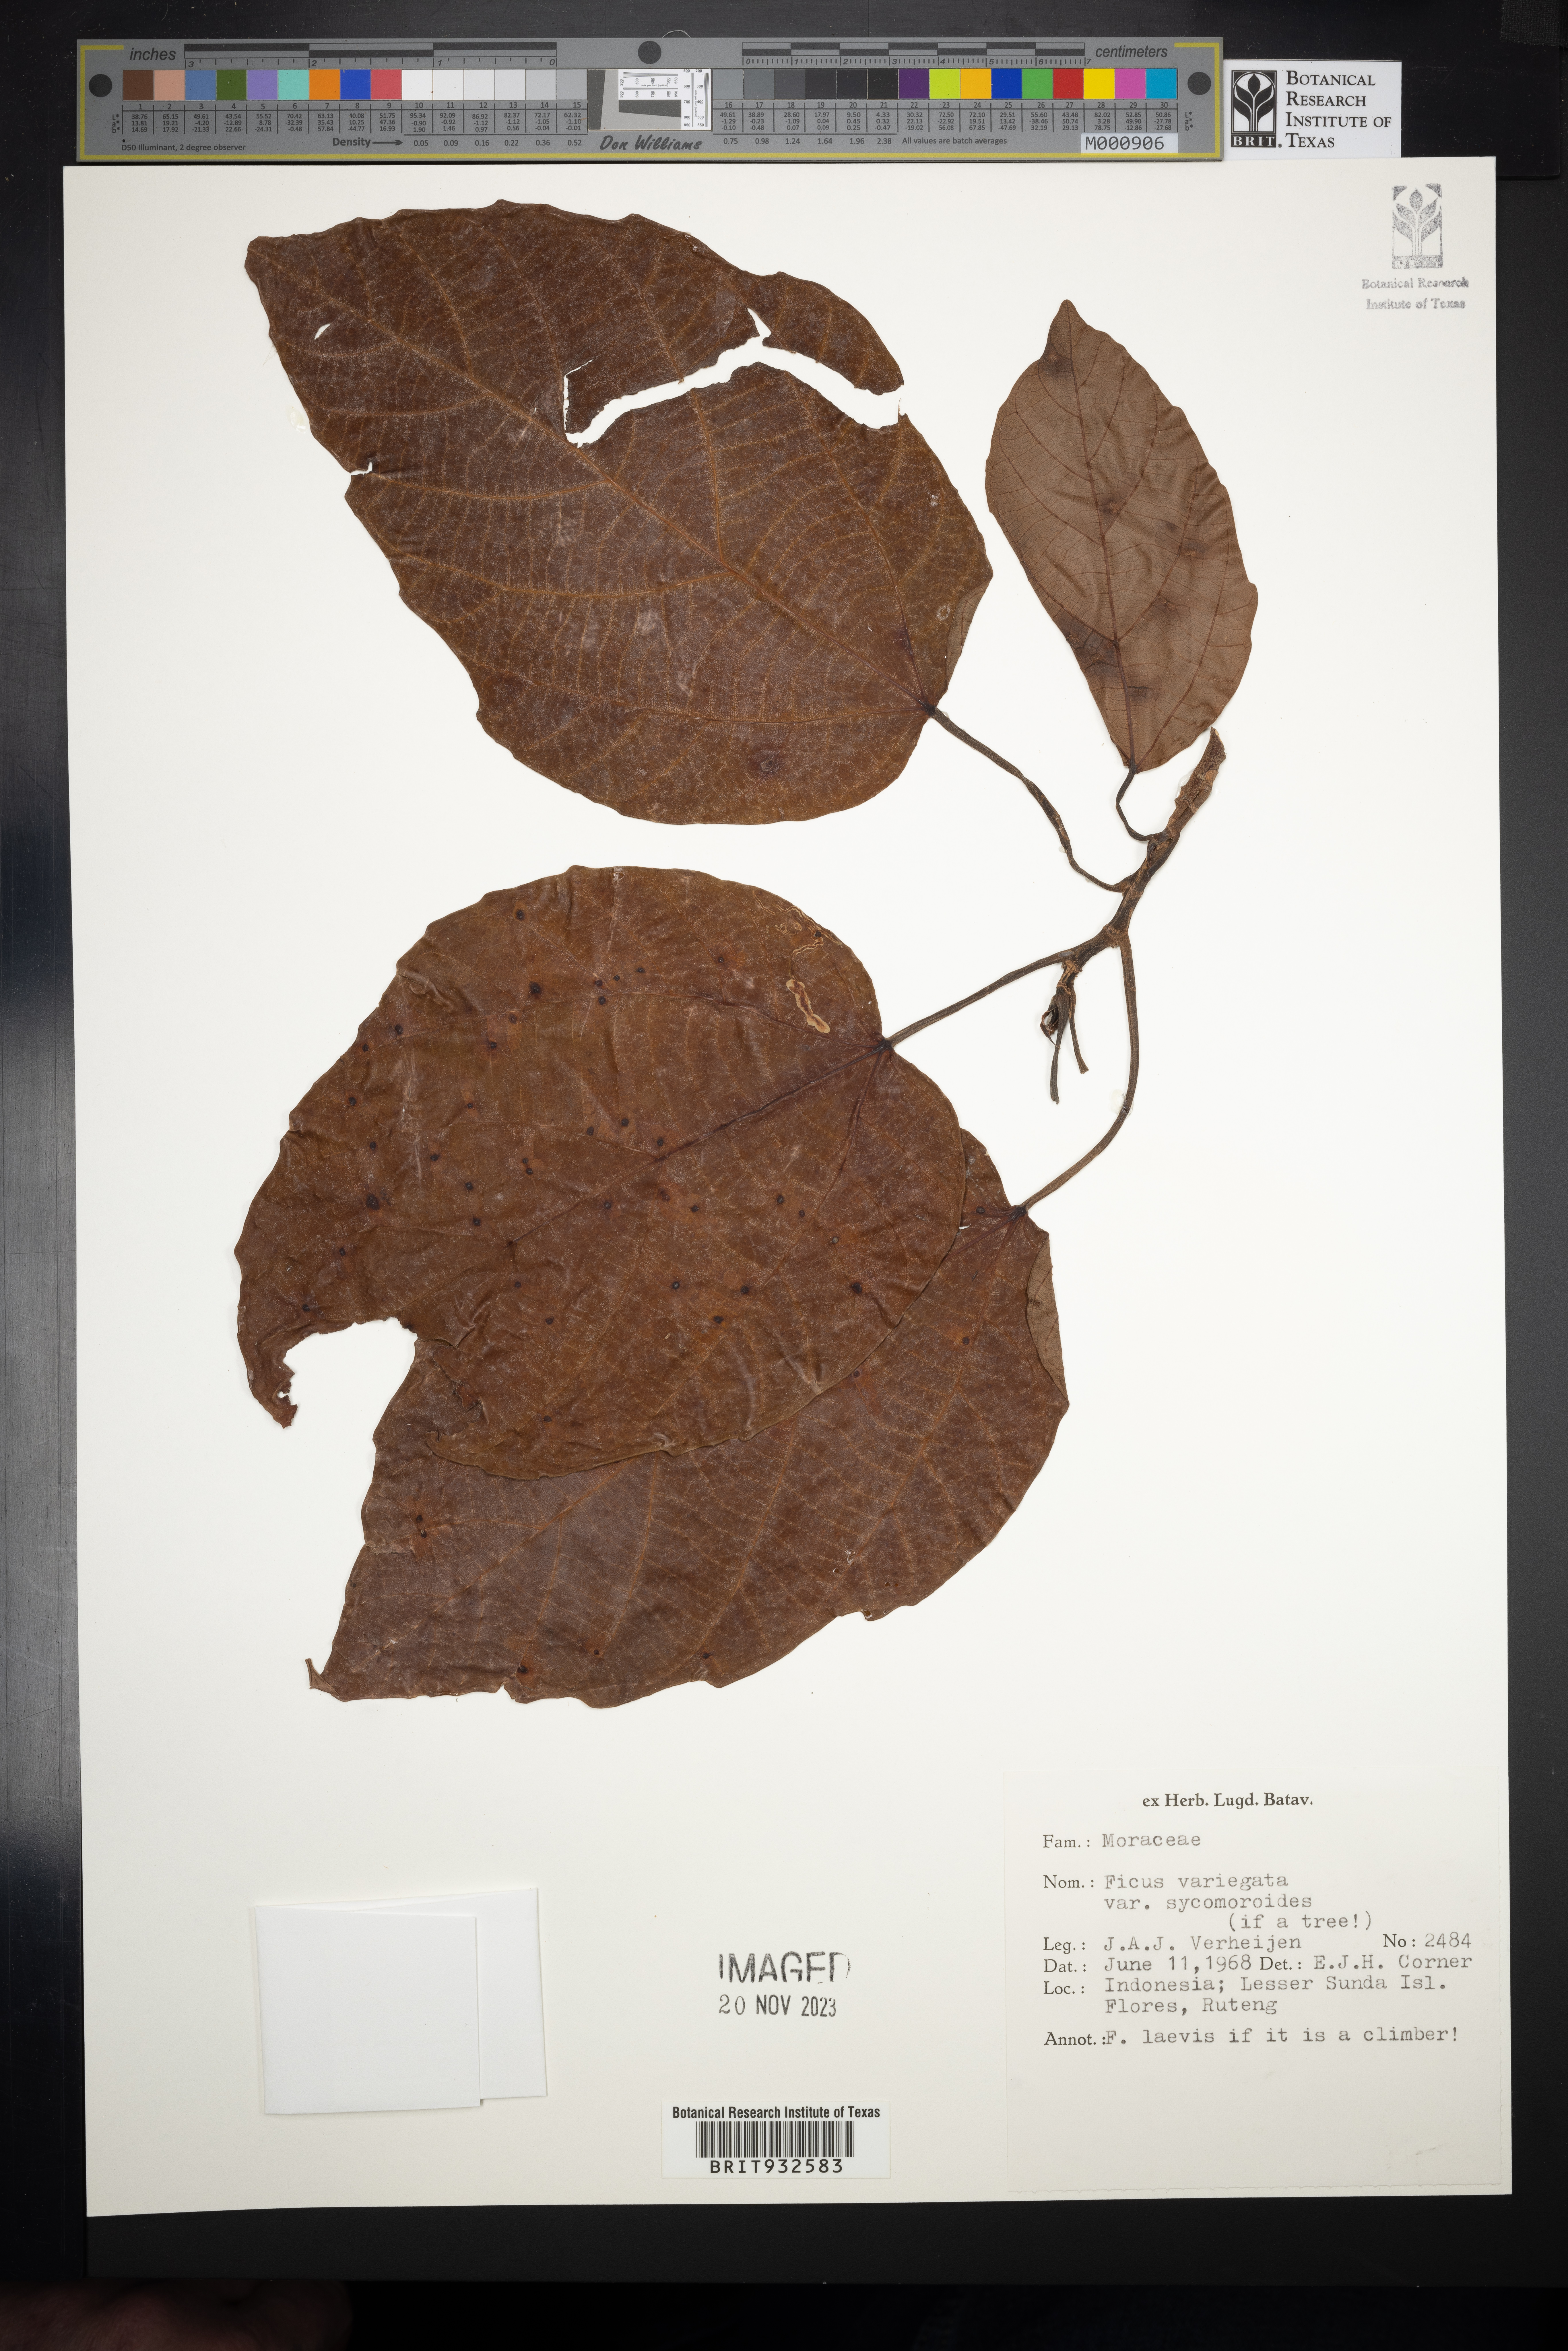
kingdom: Plantae
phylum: Tracheophyta
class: Magnoliopsida
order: Rosales
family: Moraceae
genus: Ficus
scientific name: Ficus variegata
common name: Variegated fig
